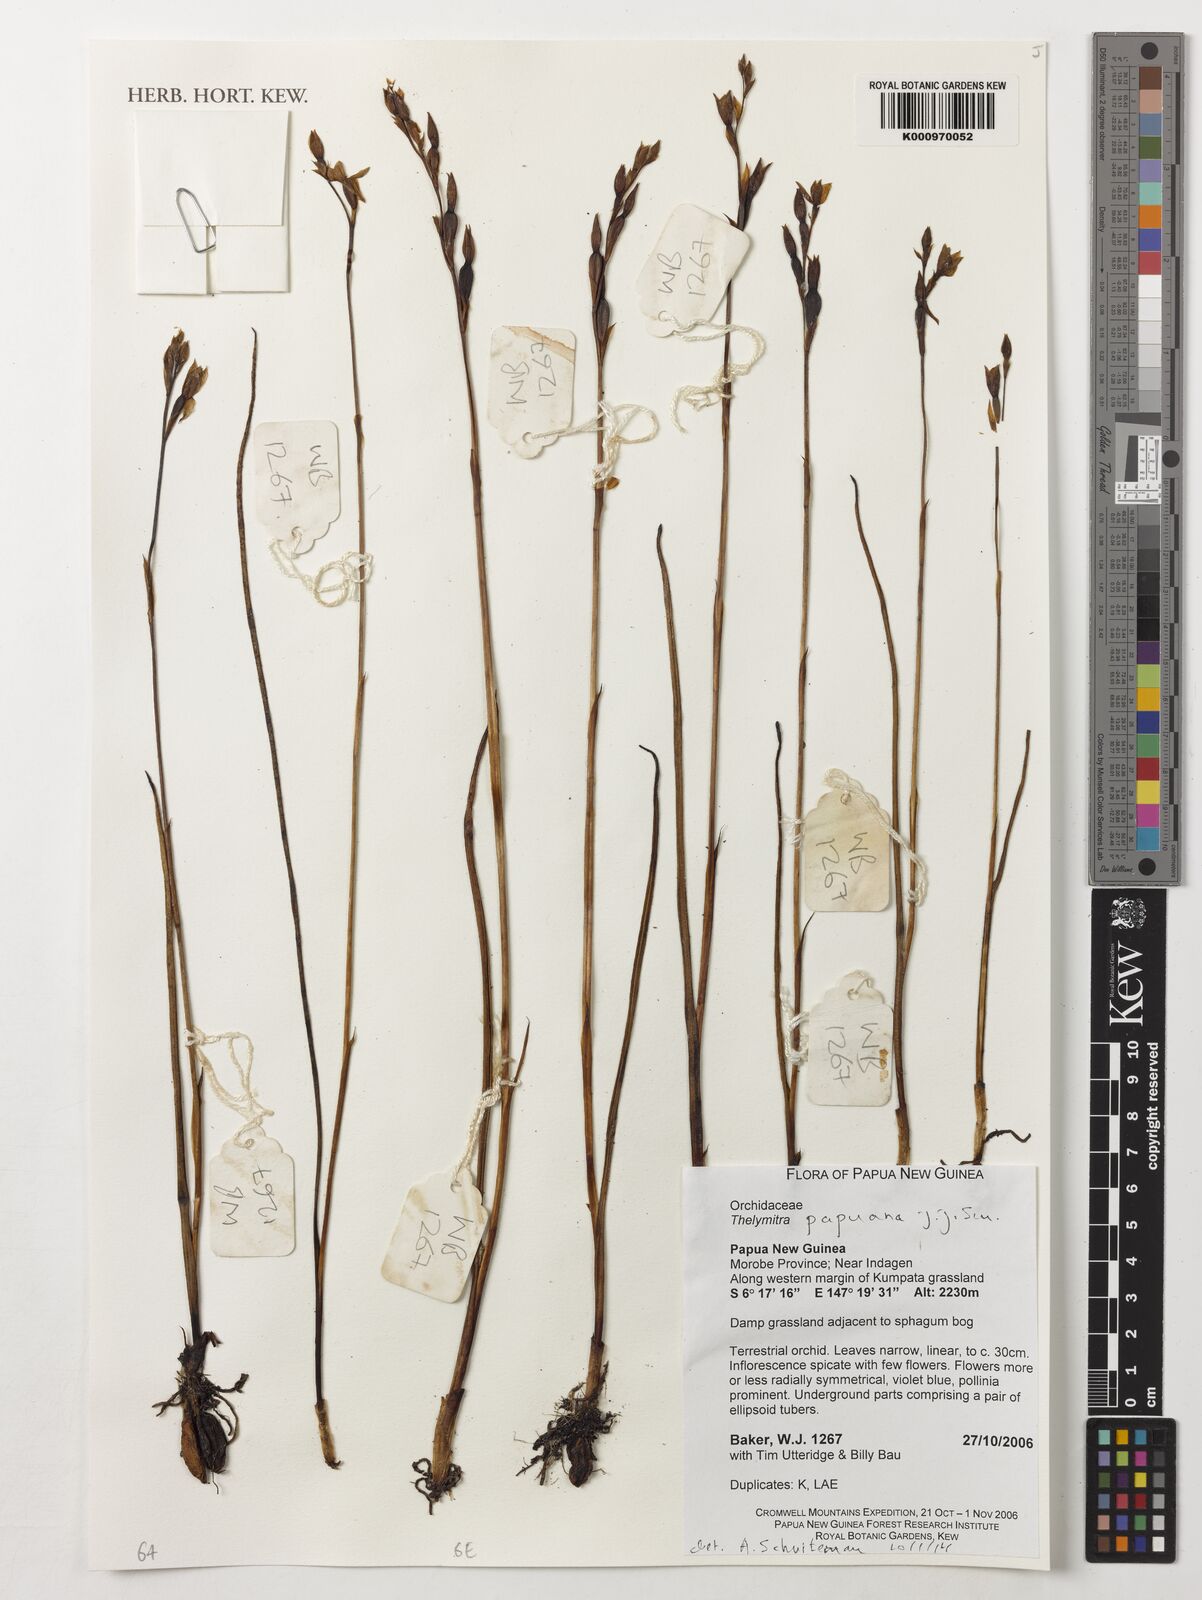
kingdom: Plantae
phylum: Tracheophyta
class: Liliopsida
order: Asparagales
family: Orchidaceae
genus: Thelymitra
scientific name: Thelymitra papuana
